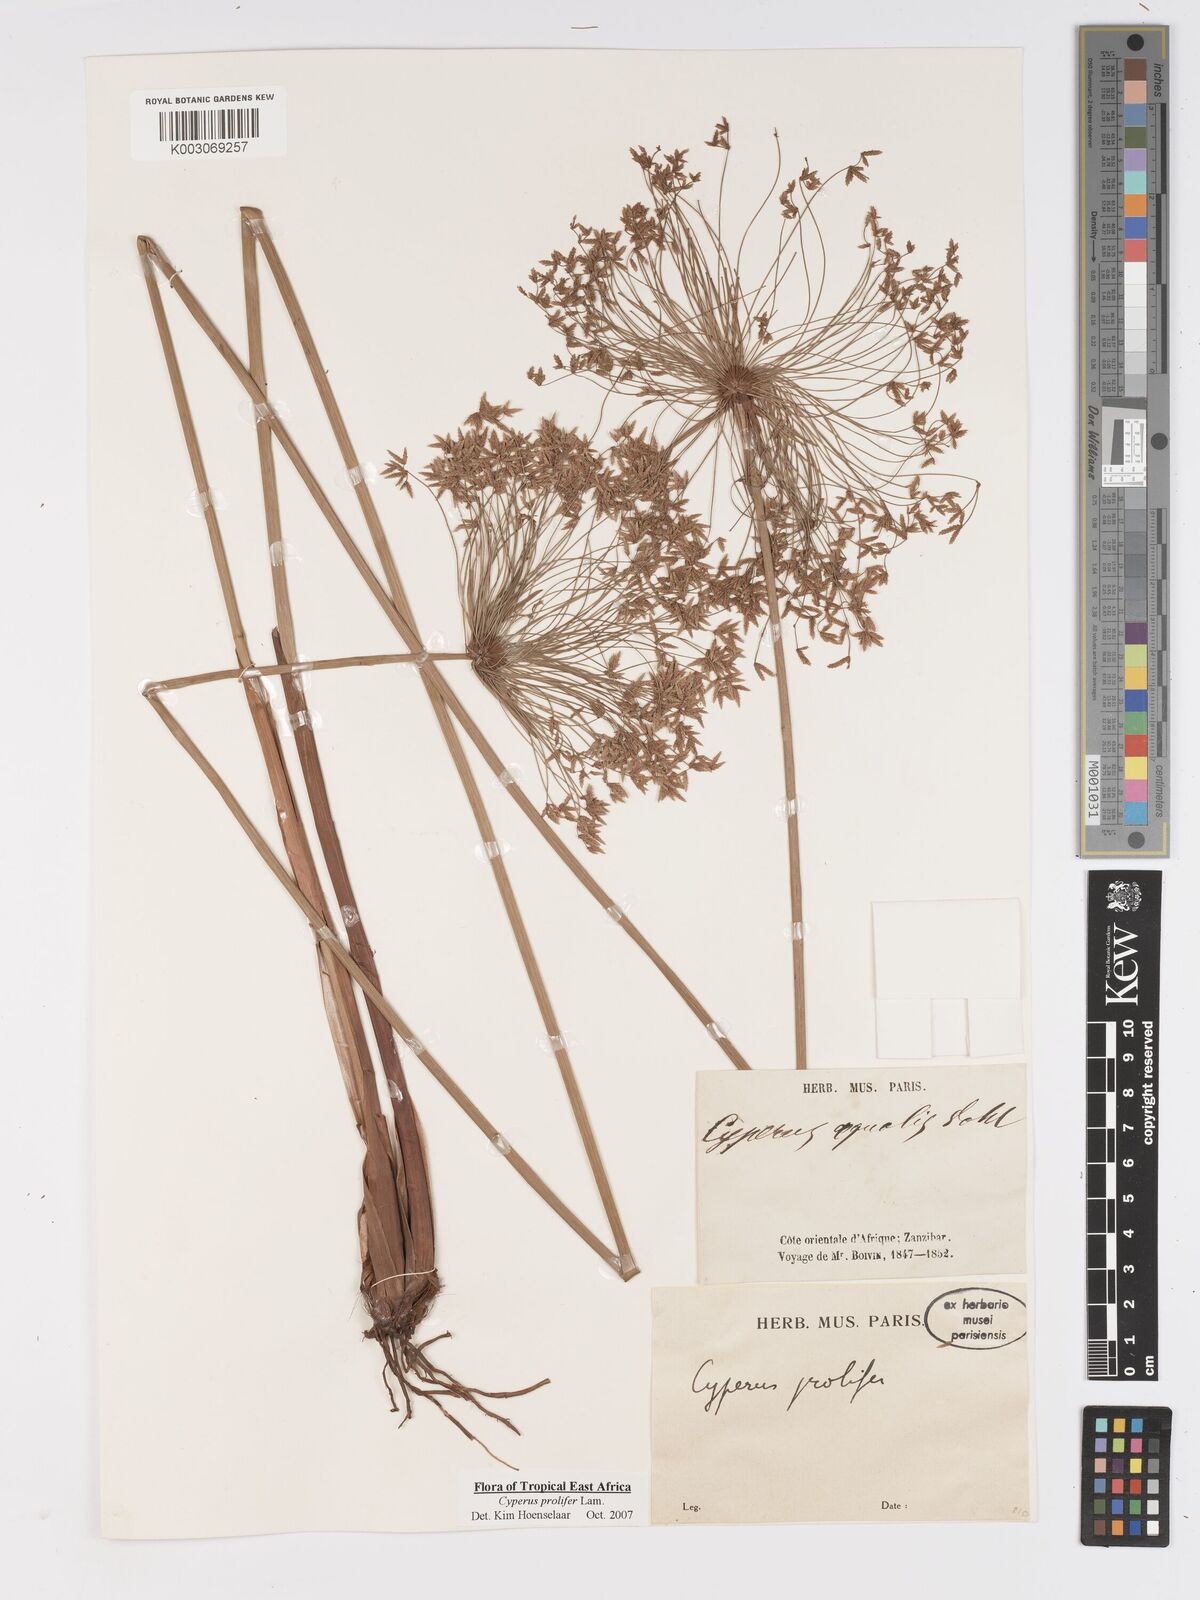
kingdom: Plantae
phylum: Tracheophyta
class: Liliopsida
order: Poales
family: Cyperaceae
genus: Cyperus
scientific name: Cyperus prolifer
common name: Miniature flatsedge
